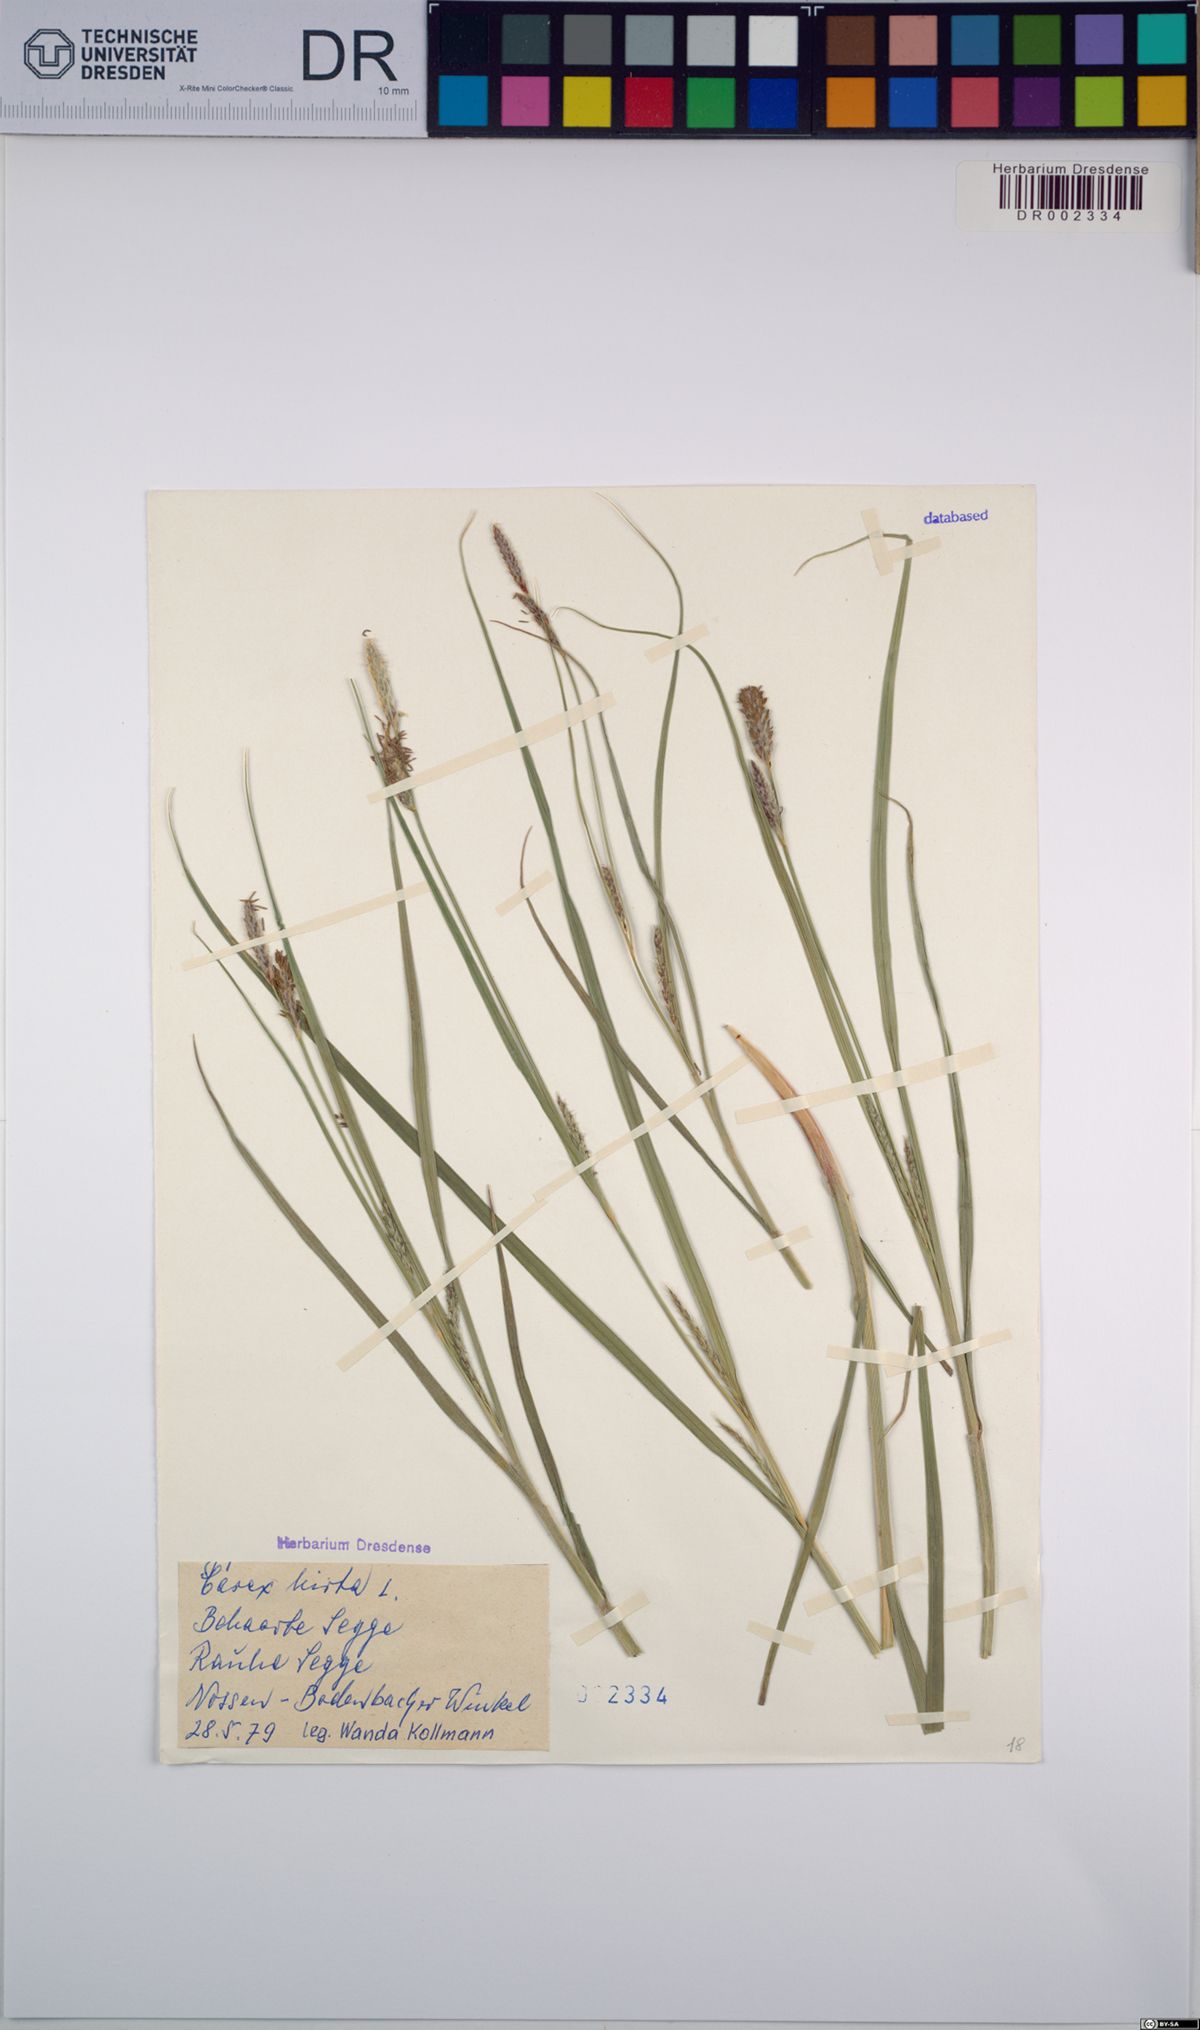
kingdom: Plantae
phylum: Tracheophyta
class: Liliopsida
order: Poales
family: Cyperaceae
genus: Carex
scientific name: Carex hirta
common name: Hairy sedge
